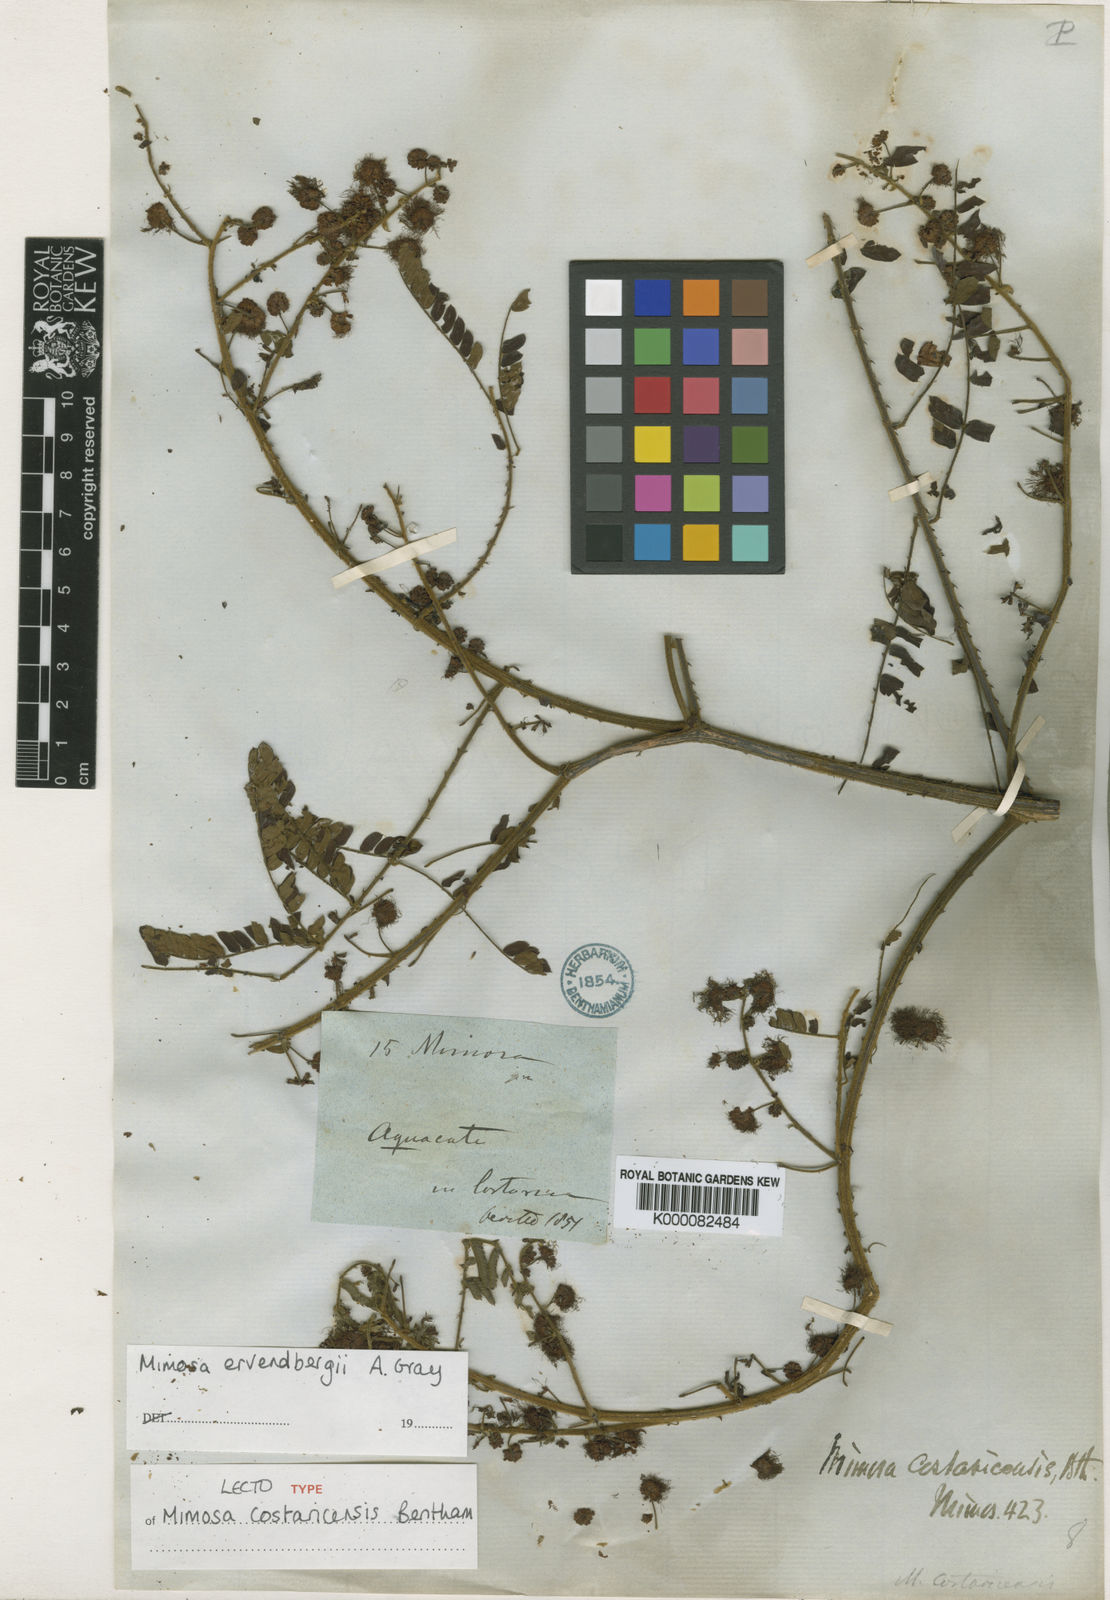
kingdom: Plantae
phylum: Tracheophyta
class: Magnoliopsida
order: Fabales
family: Fabaceae
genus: Mimosa
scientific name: Mimosa ervendbergii
